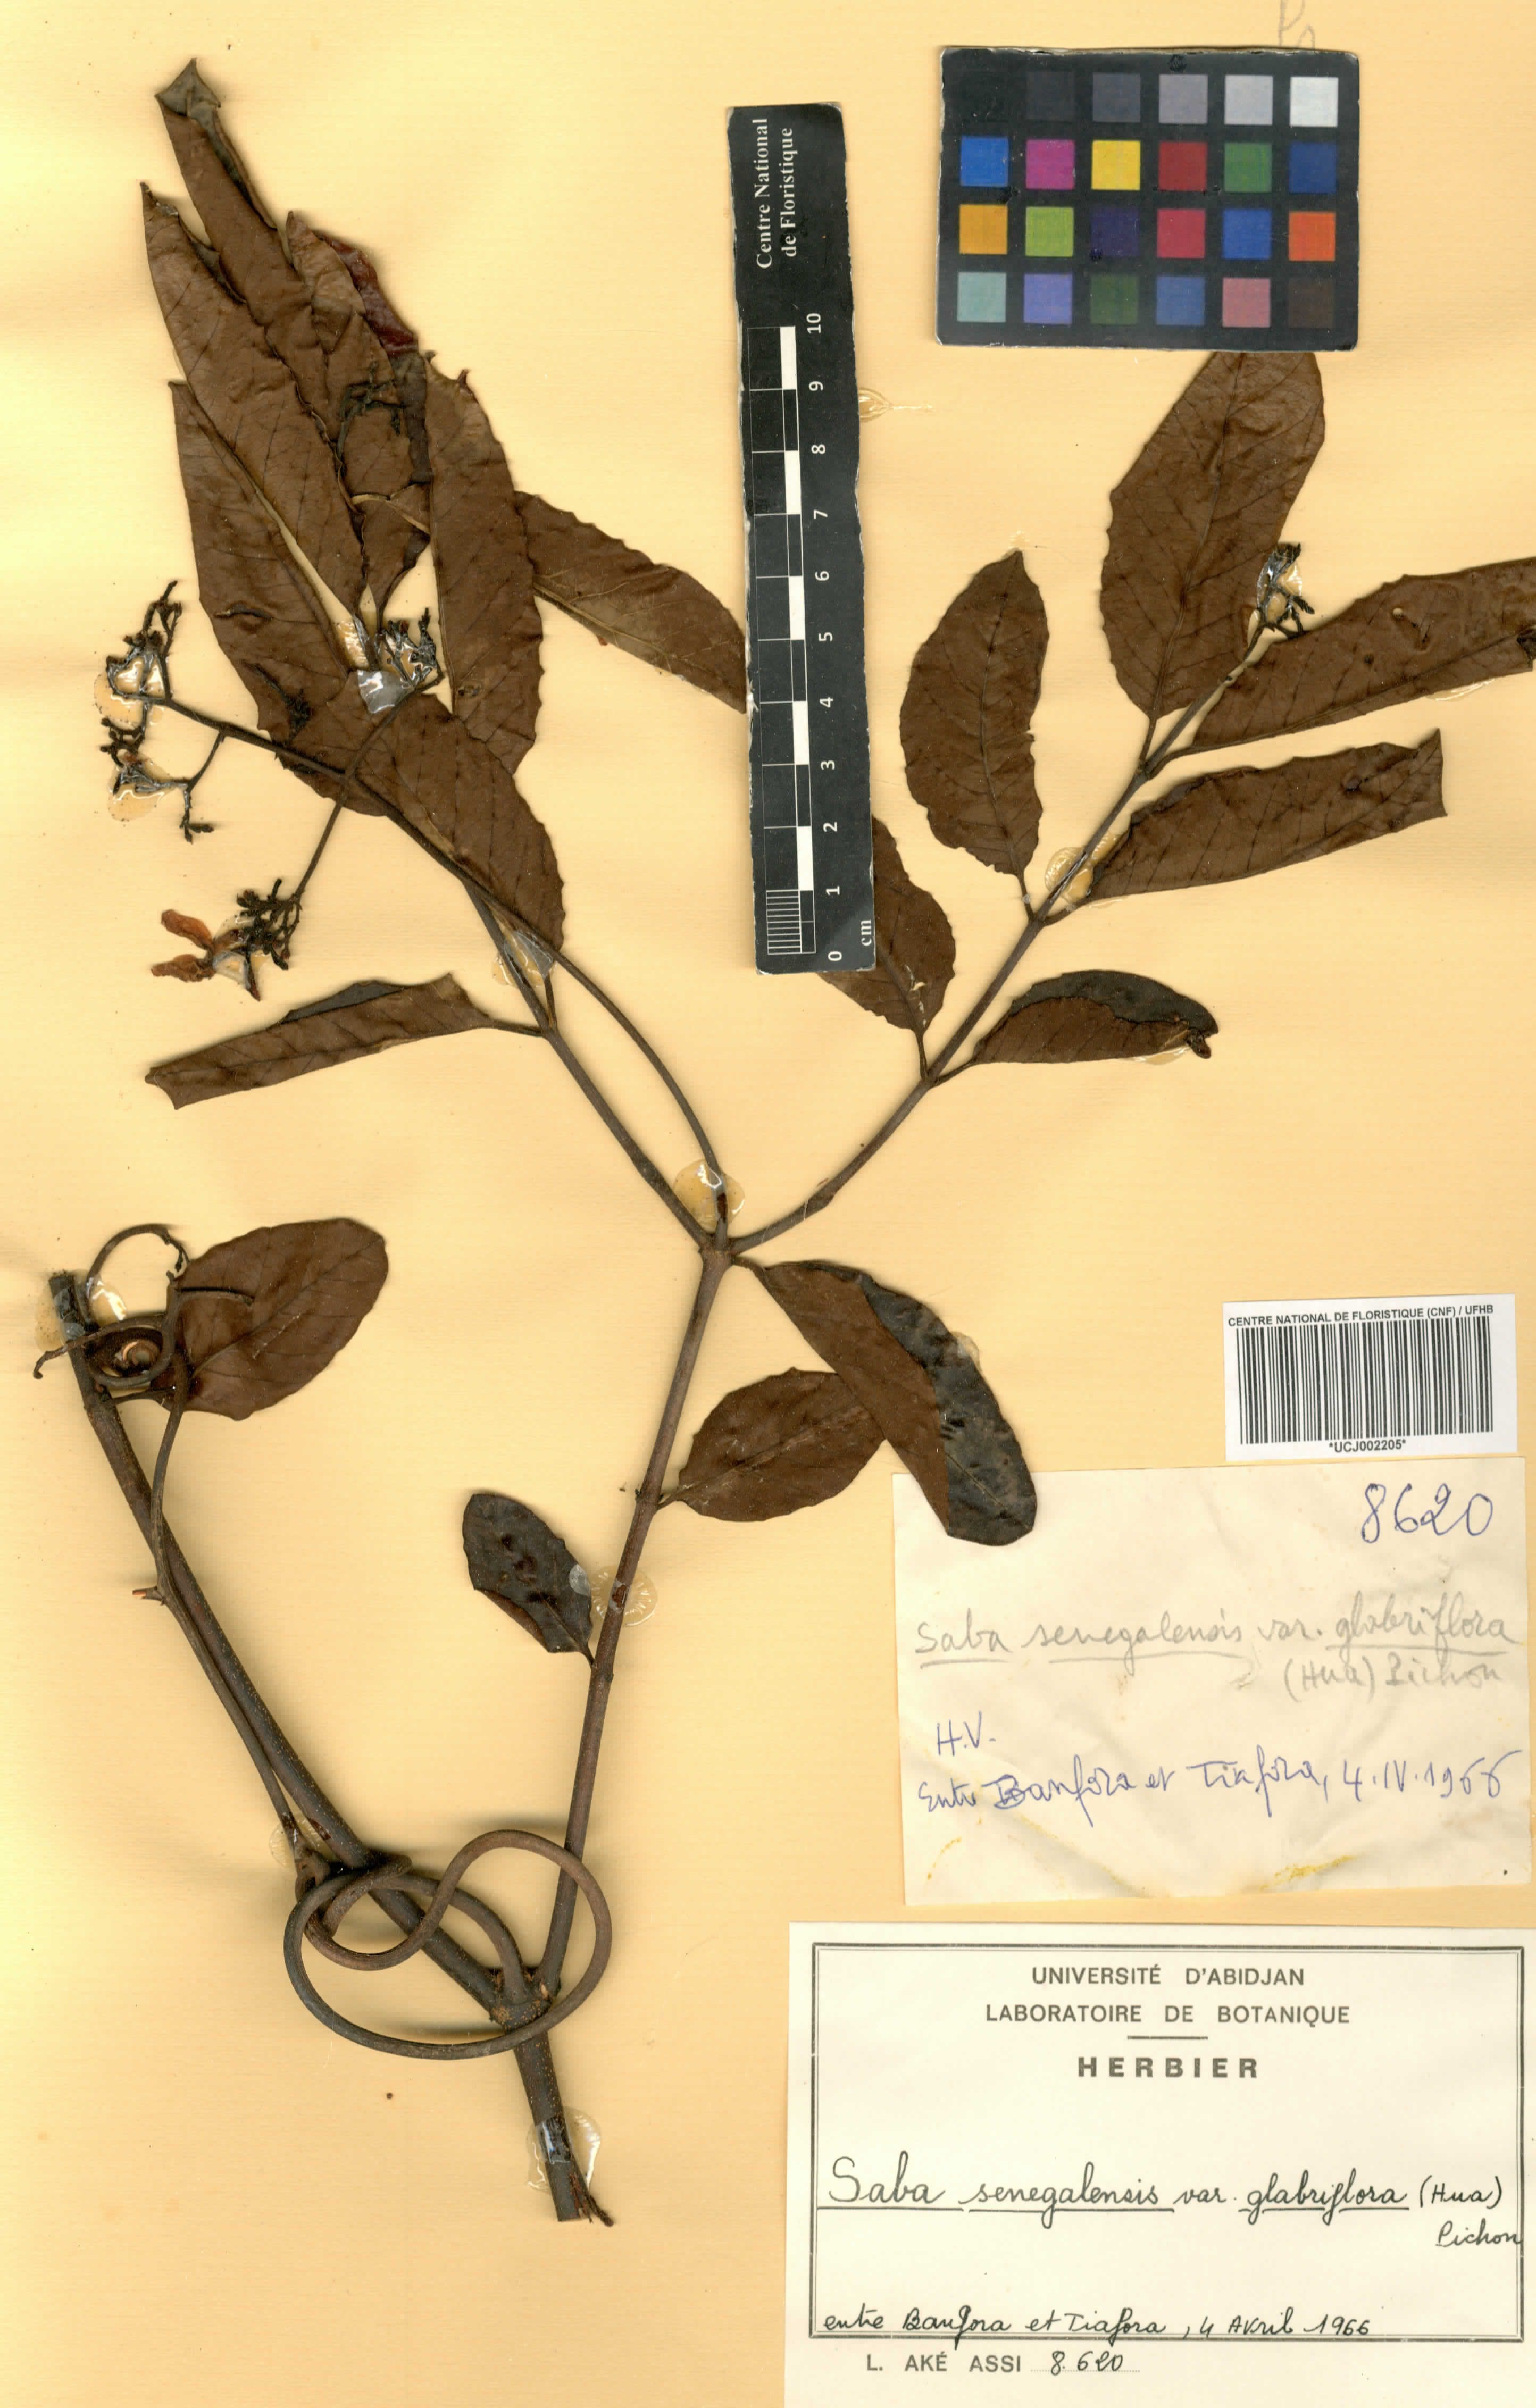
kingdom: Plantae
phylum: Tracheophyta
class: Magnoliopsida
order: Gentianales
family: Apocynaceae
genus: Saba
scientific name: Saba senegalensis
